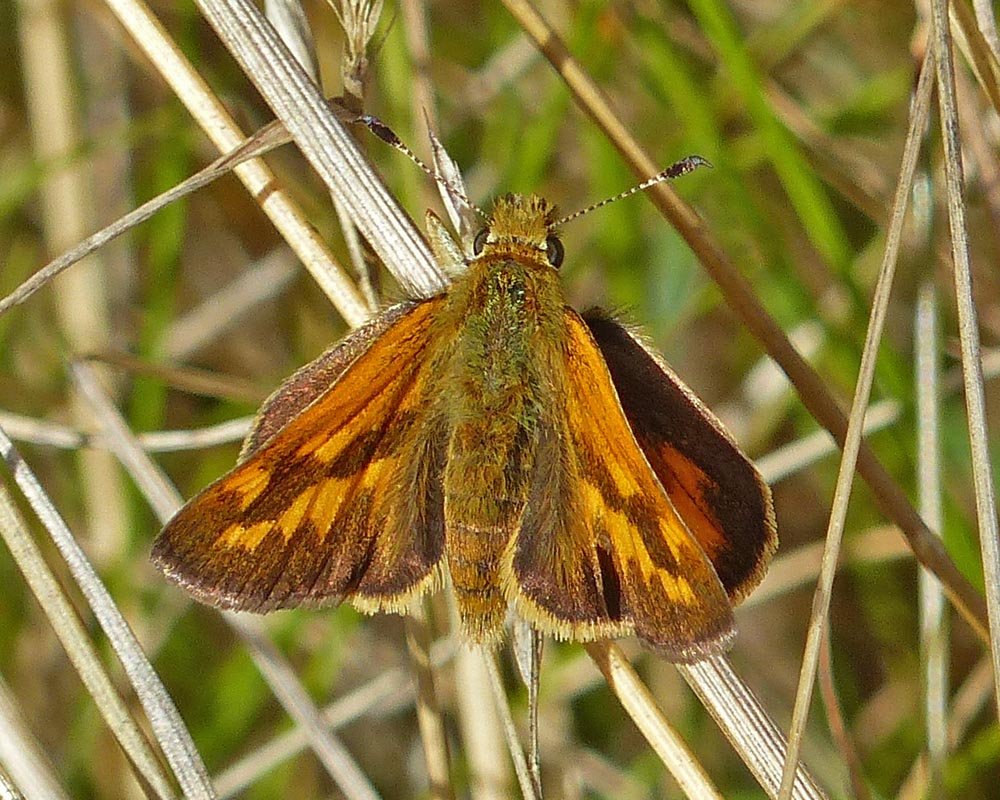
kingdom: Animalia
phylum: Arthropoda
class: Insecta
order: Lepidoptera
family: Hesperiidae
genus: Ochlodes
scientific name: Ochlodes sylvanoides
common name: Woodland Skipper
